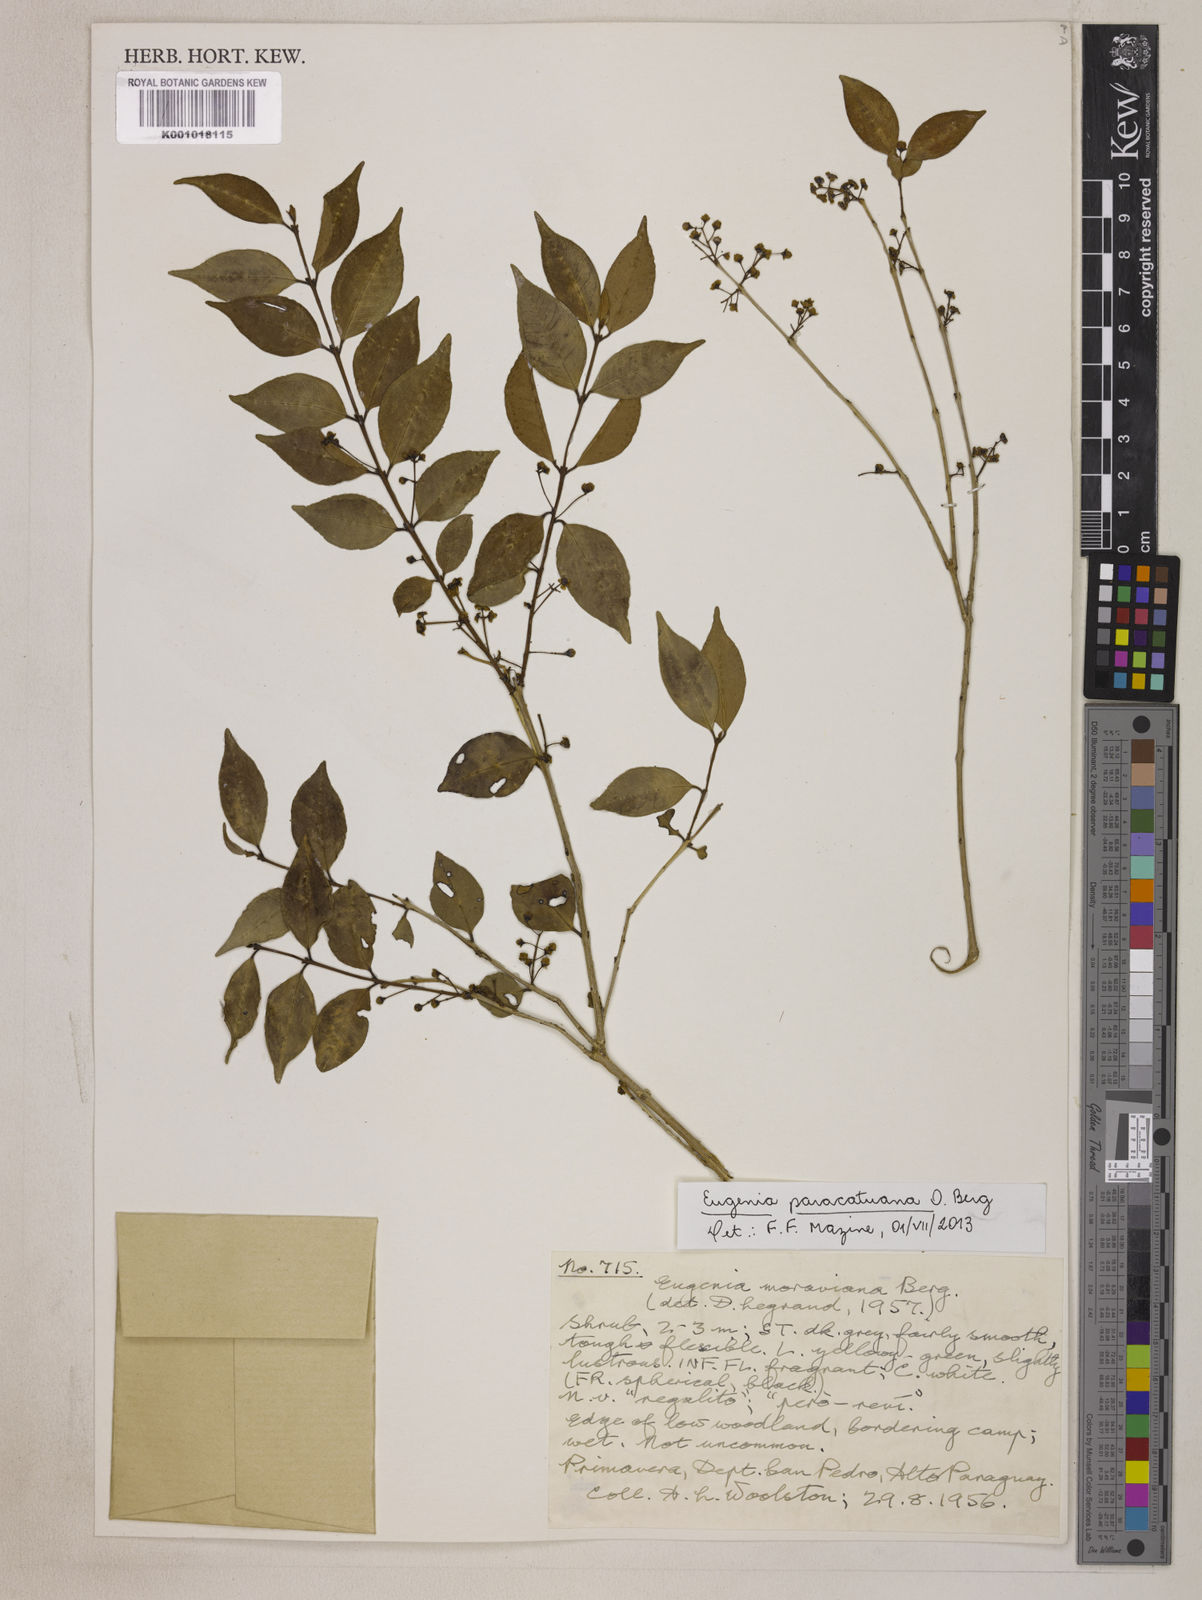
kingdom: Plantae
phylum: Tracheophyta
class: Magnoliopsida
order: Myrtales
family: Myrtaceae
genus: Eugenia
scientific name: Eugenia moraviana
